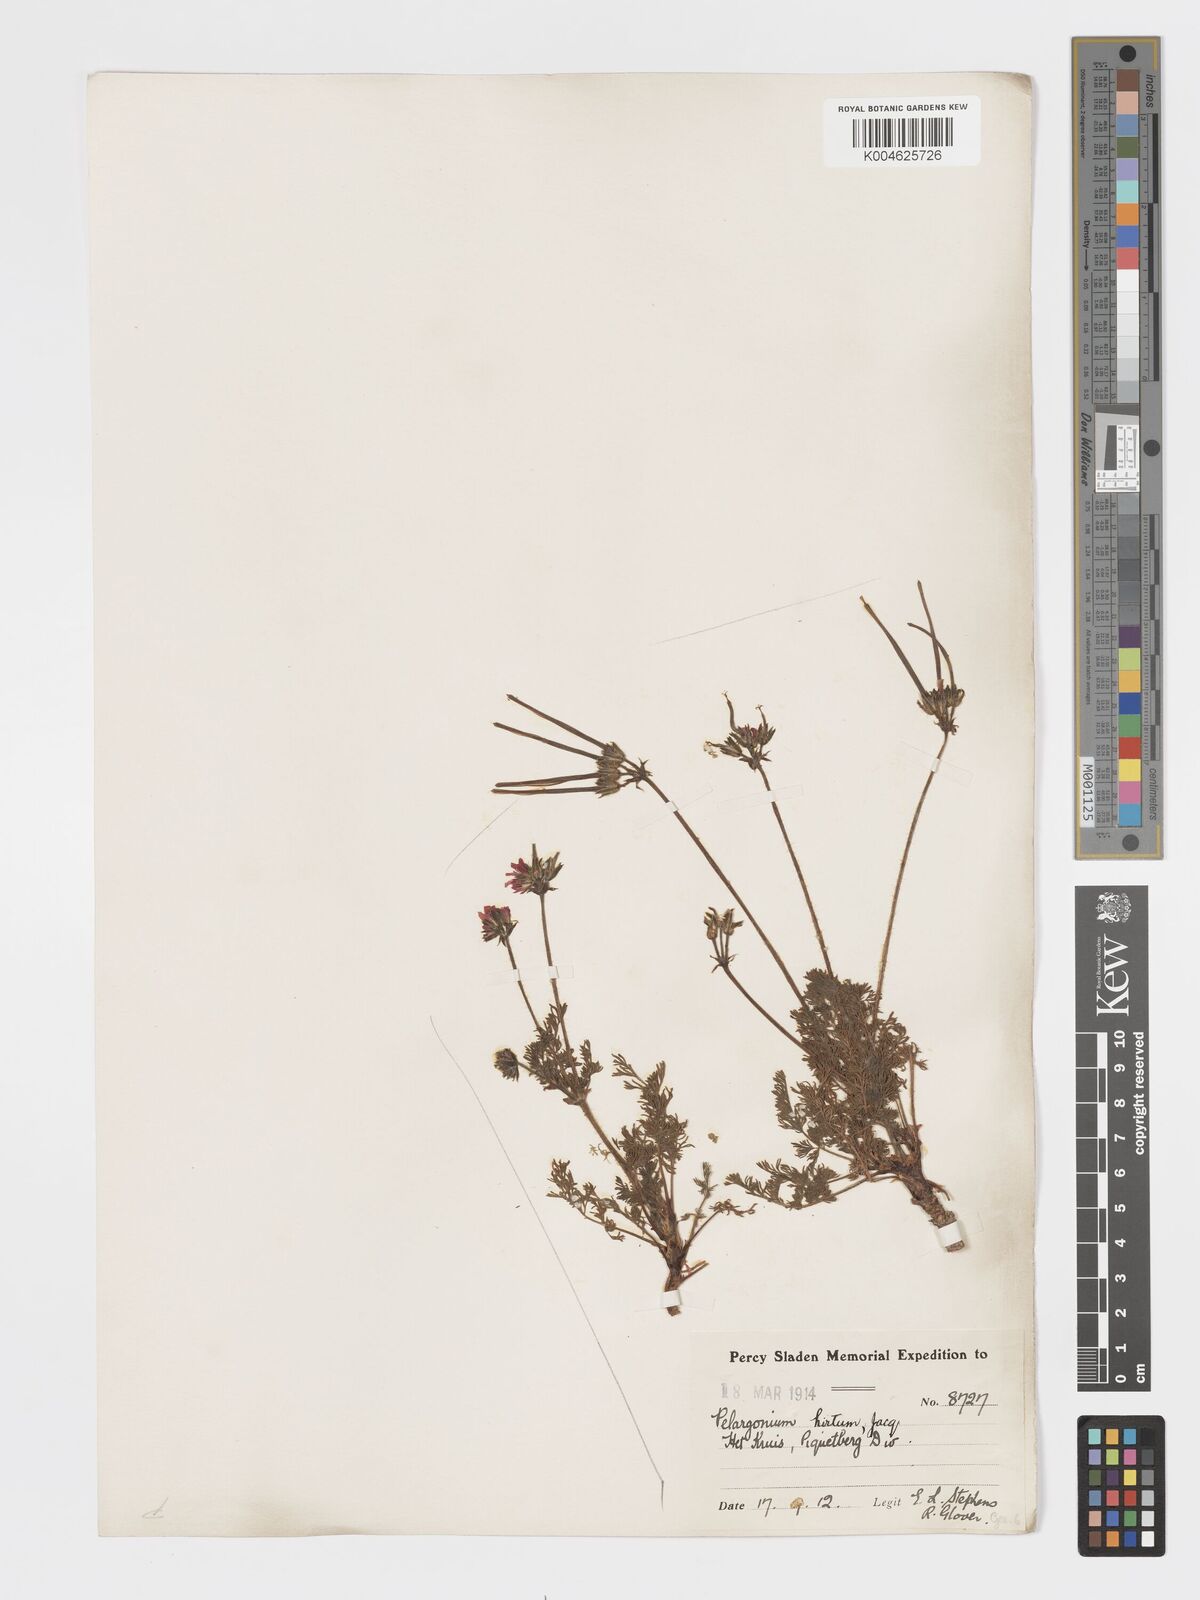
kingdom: Plantae
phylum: Tracheophyta
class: Magnoliopsida
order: Geraniales
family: Geraniaceae
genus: Pelargonium
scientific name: Pelargonium
